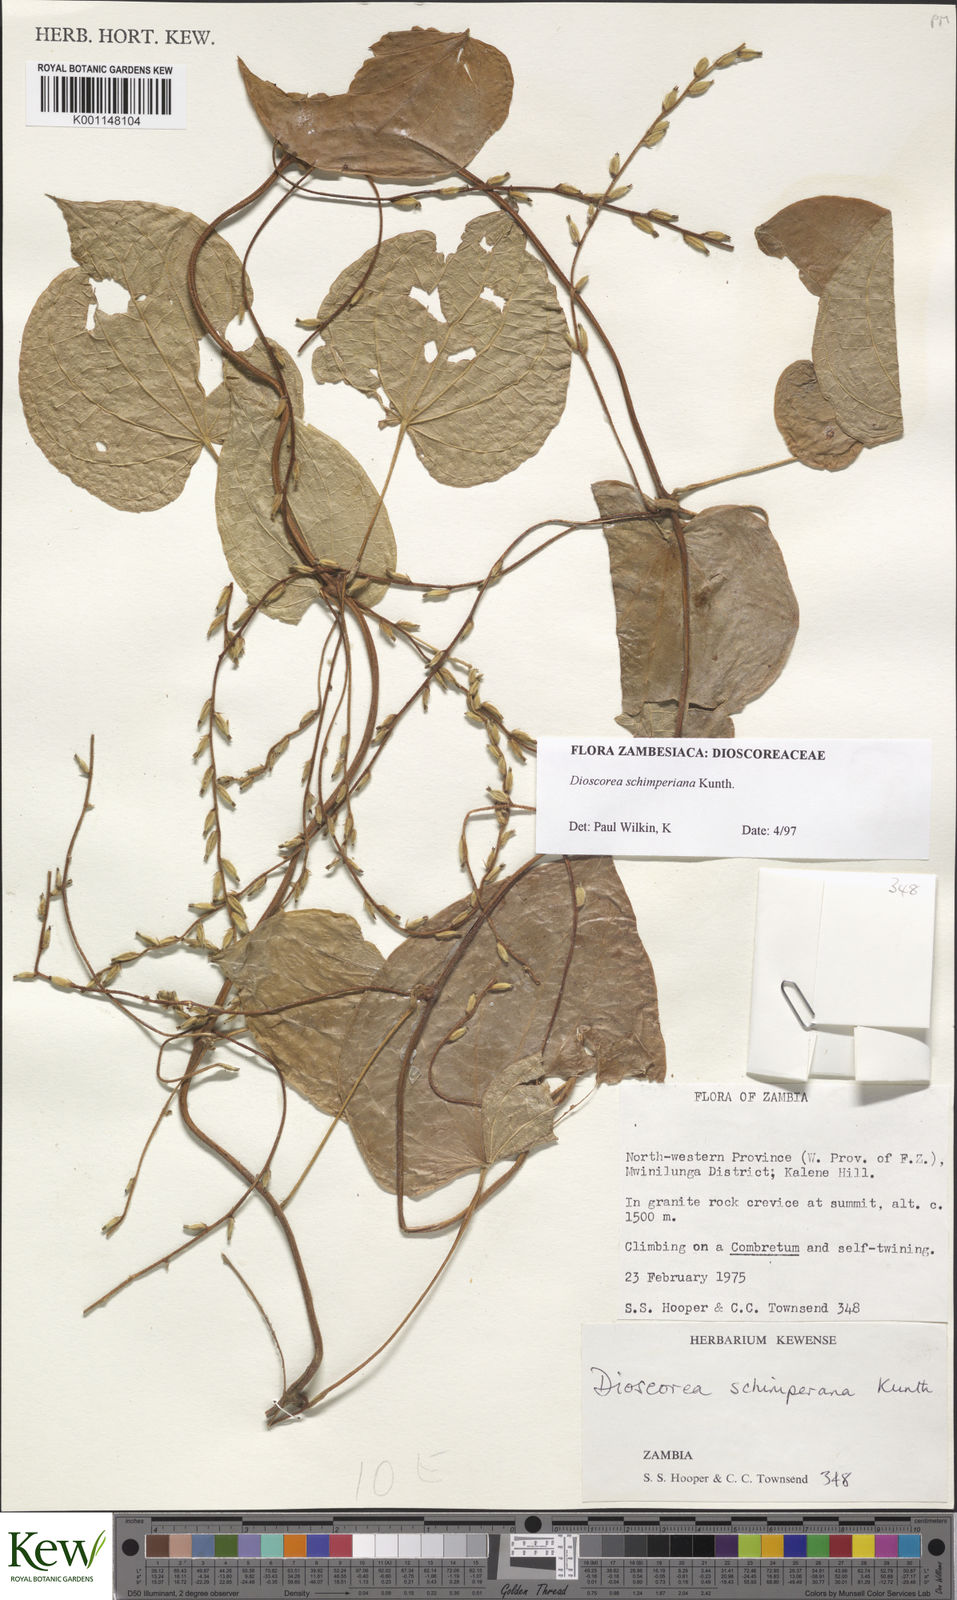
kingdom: Plantae
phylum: Tracheophyta
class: Liliopsida
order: Dioscoreales
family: Dioscoreaceae
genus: Dioscorea
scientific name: Dioscorea schimperiana
